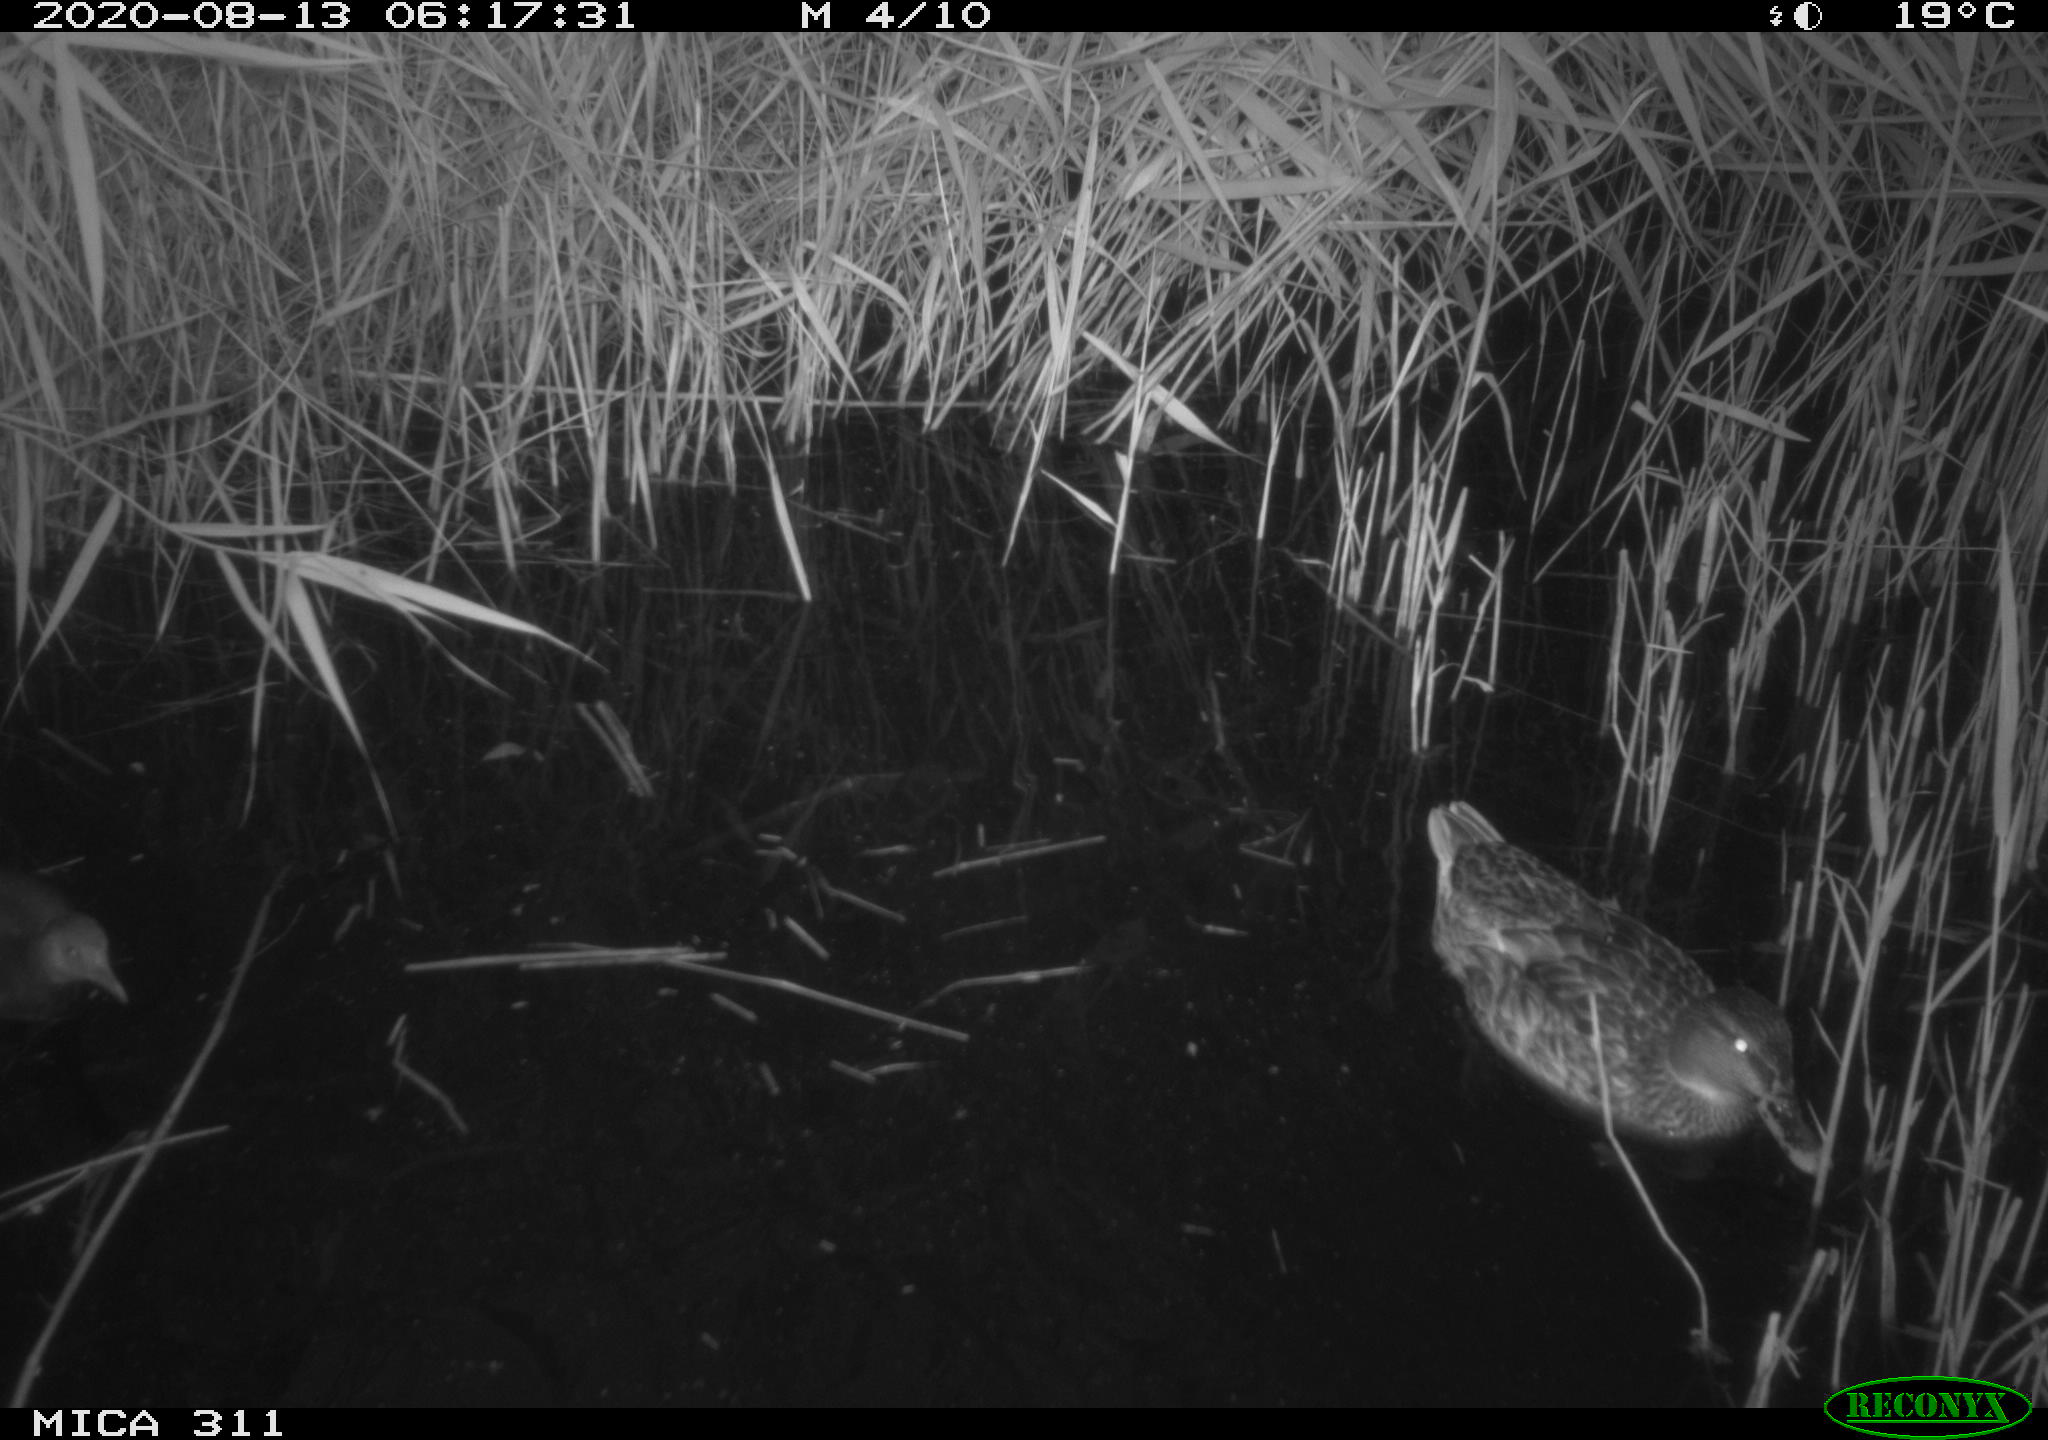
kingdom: Animalia
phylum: Chordata
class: Aves
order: Gruiformes
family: Rallidae
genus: Gallinula
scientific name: Gallinula chloropus
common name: Common moorhen
